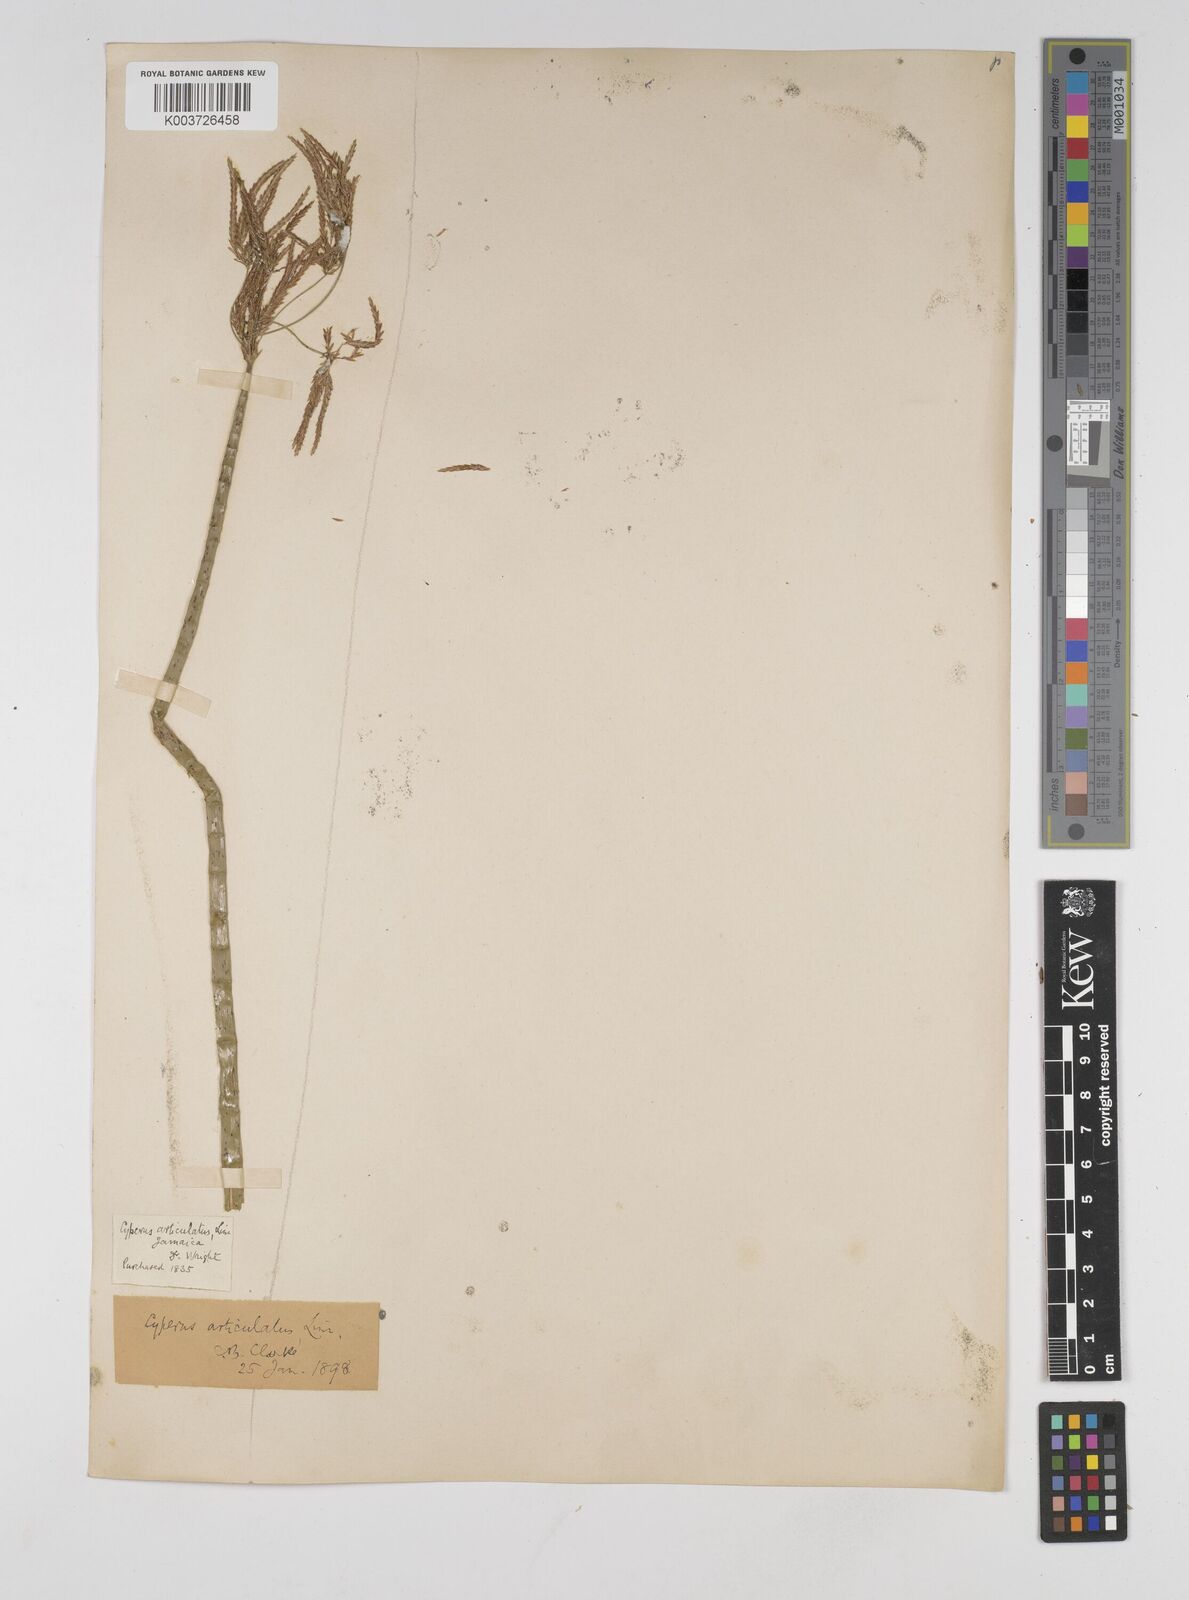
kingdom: Plantae
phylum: Tracheophyta
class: Liliopsida
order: Poales
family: Cyperaceae
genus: Cyperus
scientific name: Cyperus articulatus
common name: Jointed flatsedge
